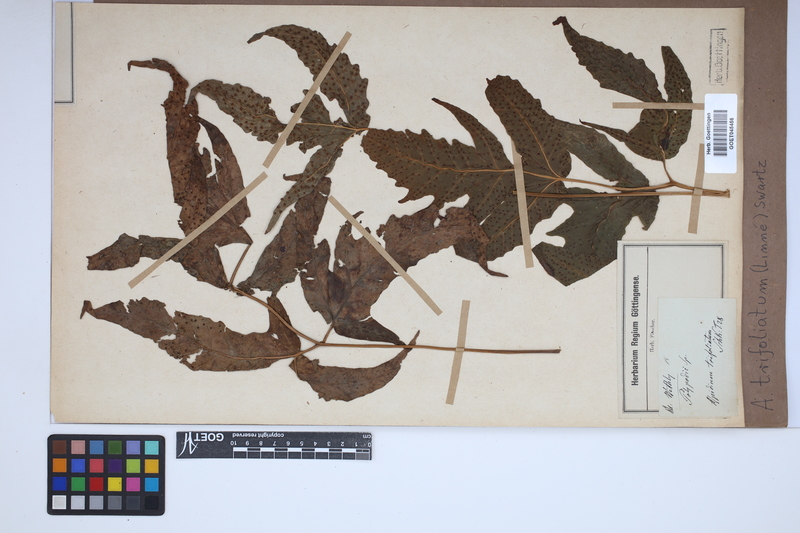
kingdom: Plantae
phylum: Tracheophyta
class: Polypodiopsida
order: Polypodiales
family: Tectariaceae
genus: Tectaria
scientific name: Tectaria trifoliata
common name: Threeleaf halberd fern
